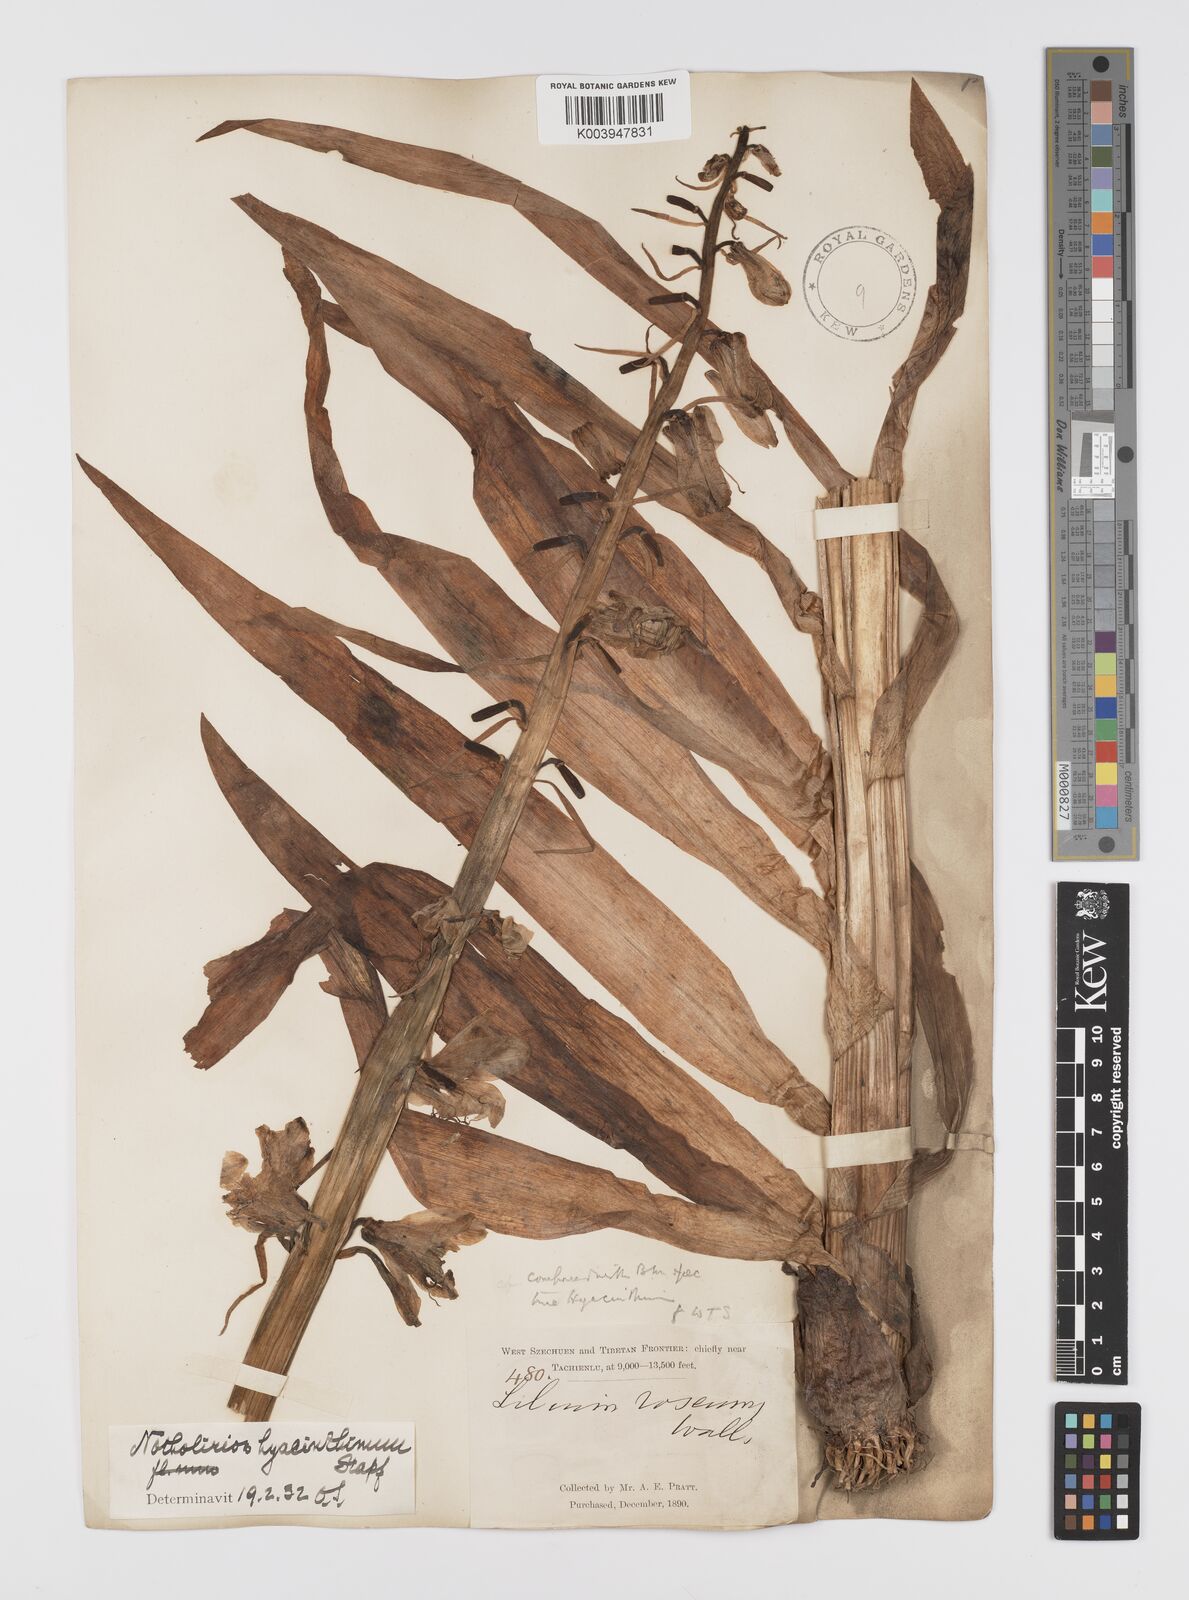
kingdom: Plantae
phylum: Tracheophyta
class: Liliopsida
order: Liliales
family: Liliaceae
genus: Notholirion
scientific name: Notholirion bulbuliferum
